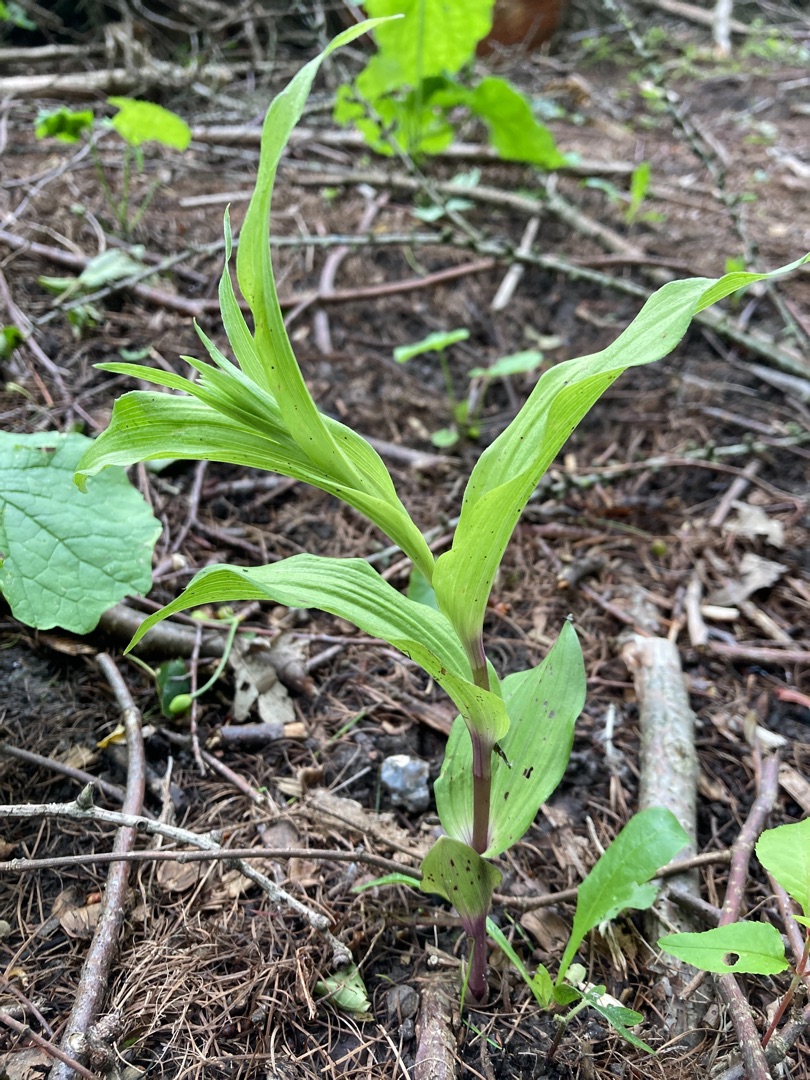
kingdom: Plantae
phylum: Tracheophyta
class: Liliopsida
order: Asparagales
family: Orchidaceae
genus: Epipactis
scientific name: Epipactis helleborine
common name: Skov-hullæbe
